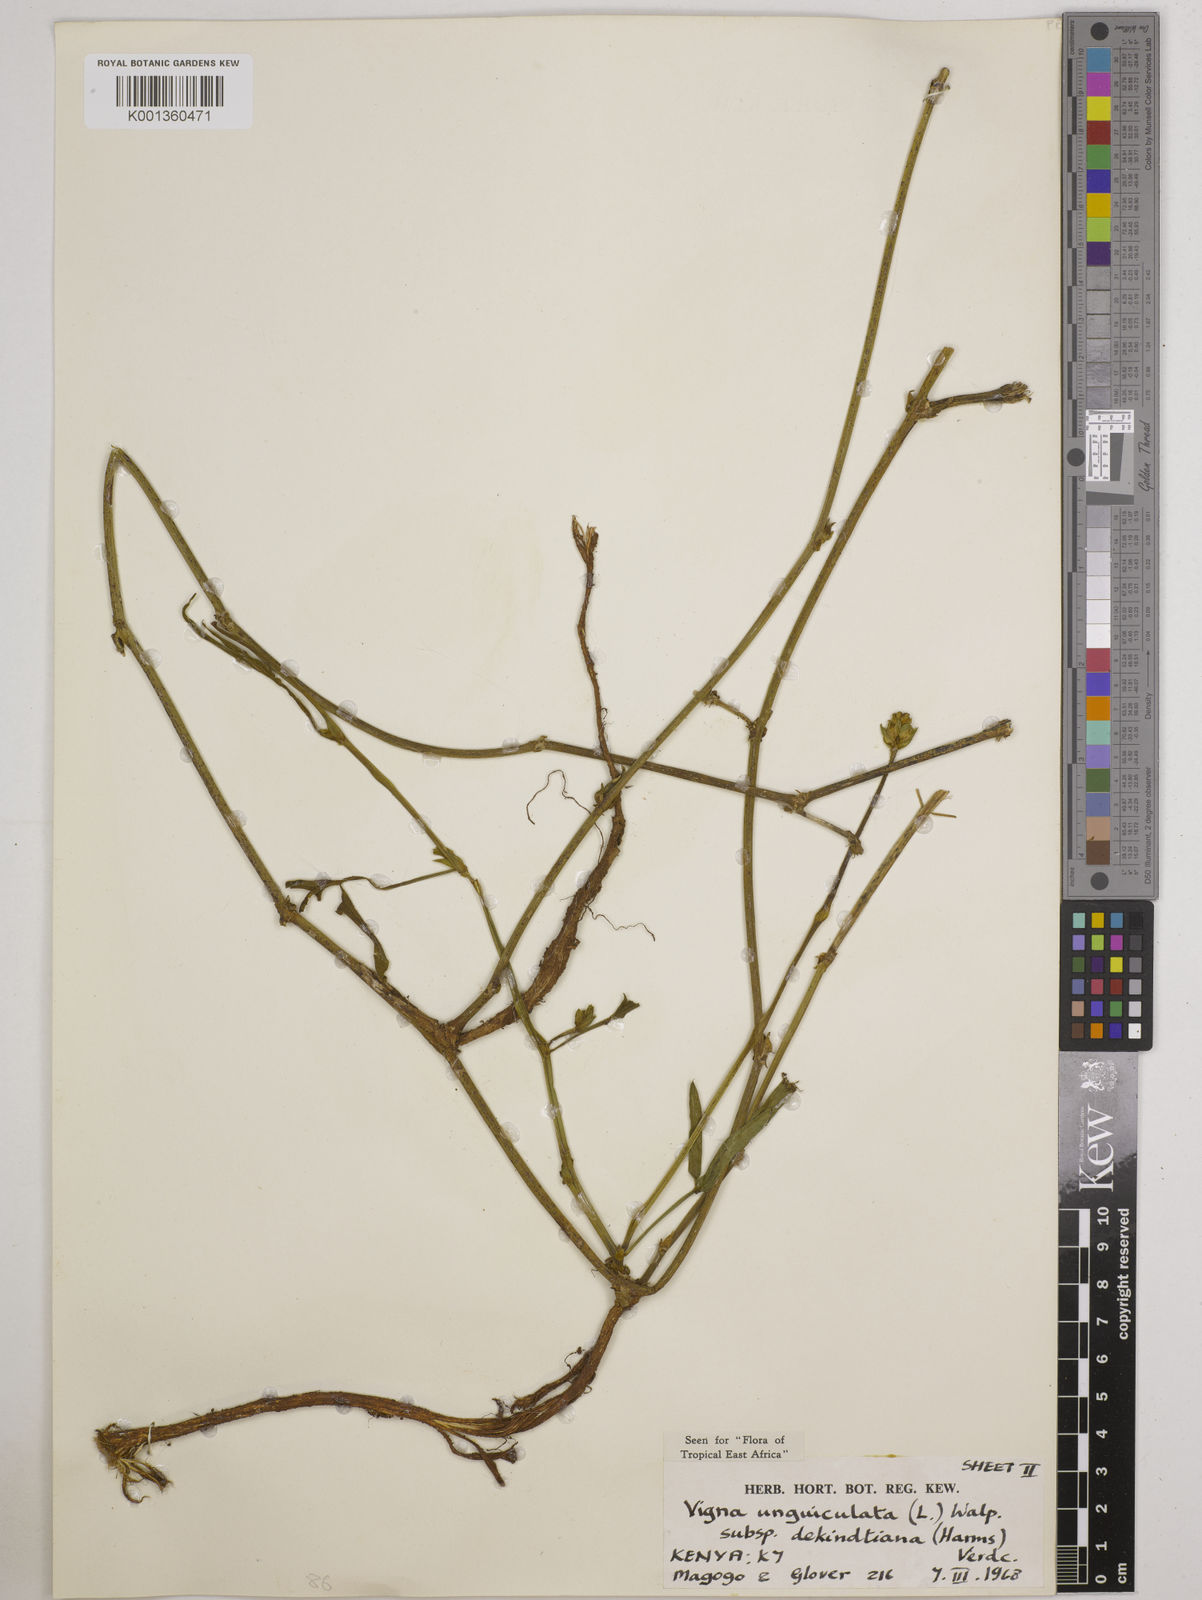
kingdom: Plantae
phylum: Tracheophyta
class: Magnoliopsida
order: Fabales
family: Fabaceae
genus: Vigna
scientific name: Vigna
